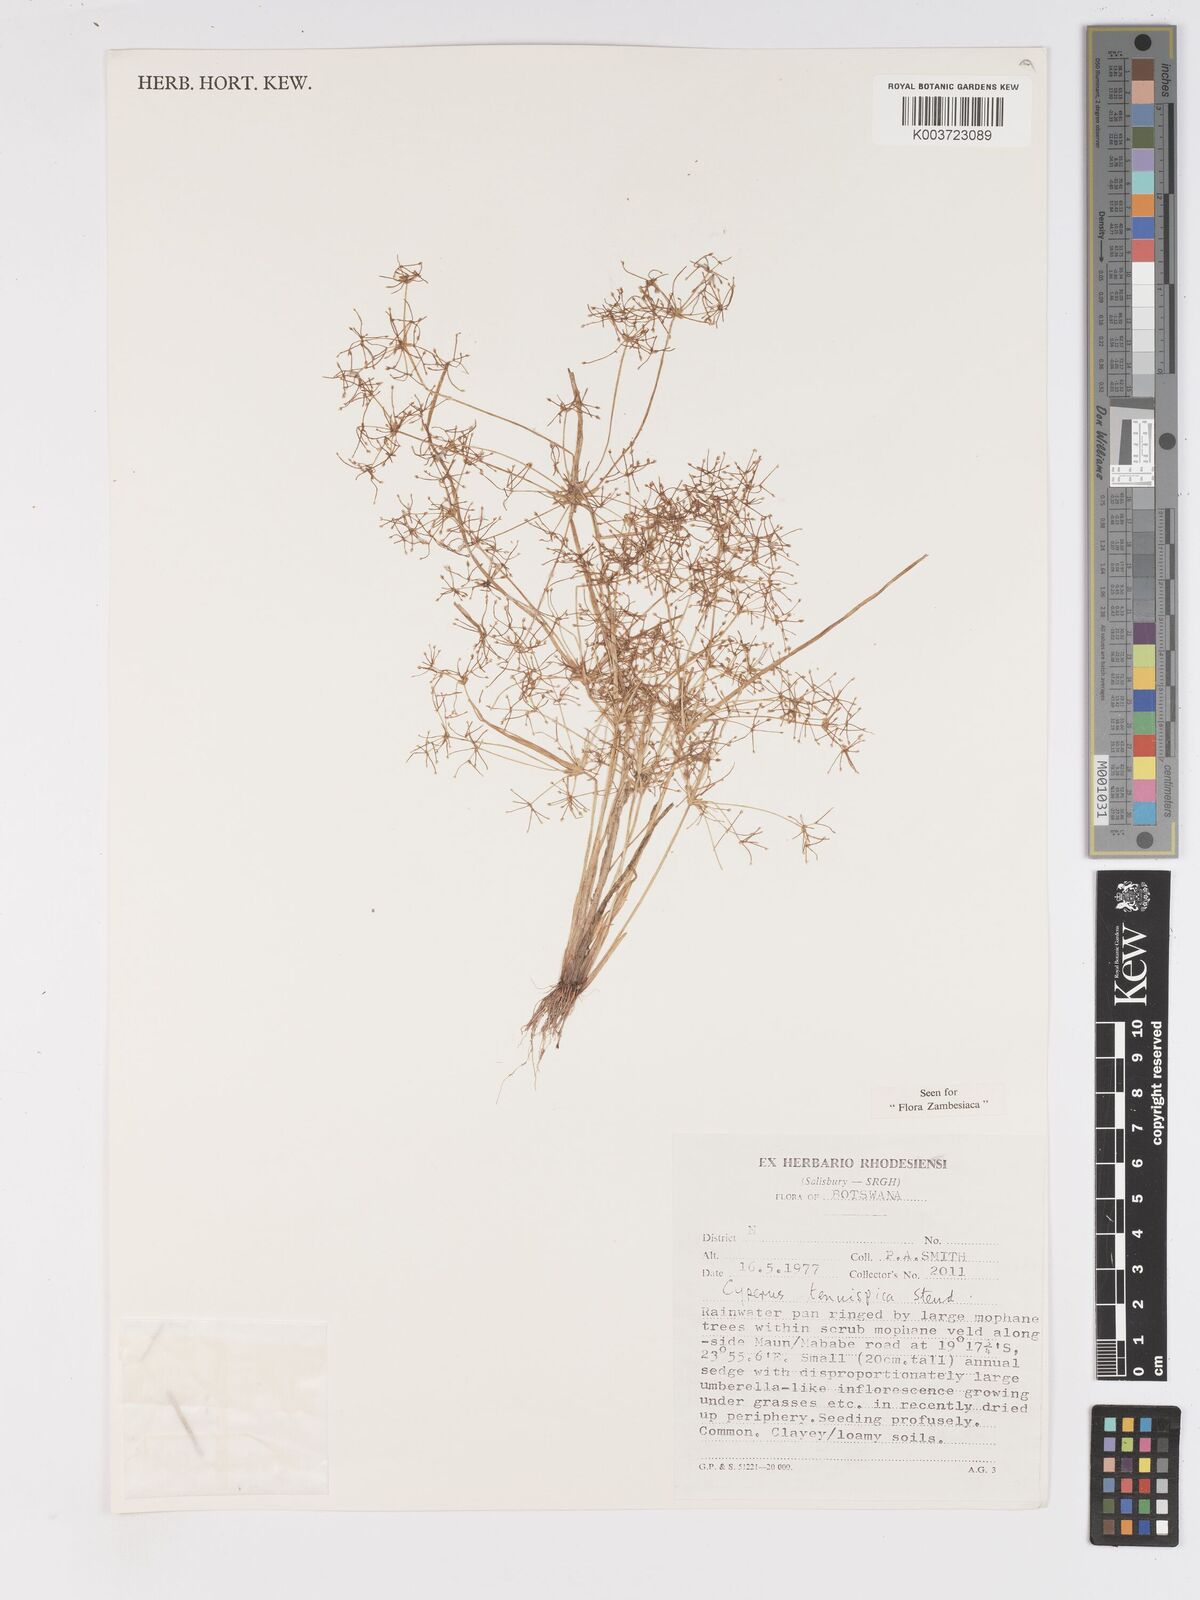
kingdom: Plantae
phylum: Tracheophyta
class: Liliopsida
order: Poales
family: Cyperaceae
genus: Cyperus
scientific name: Cyperus tenuispica
